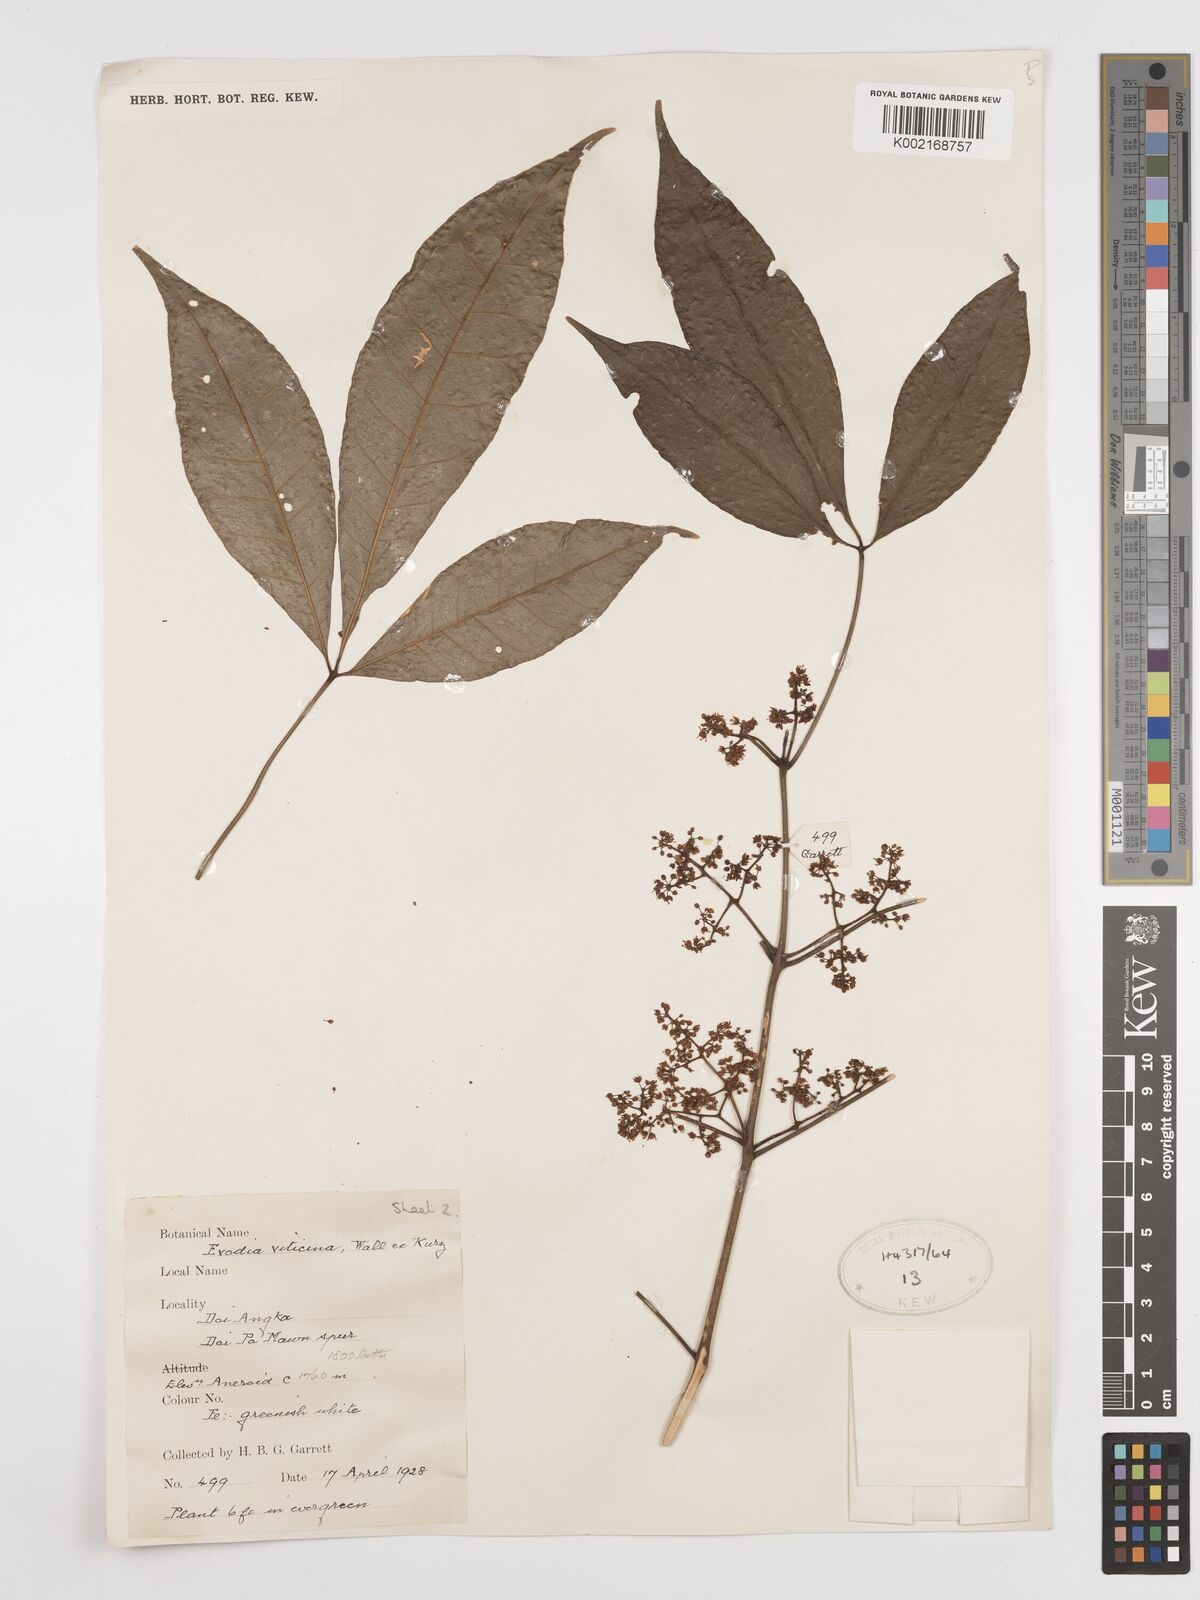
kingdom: Plantae
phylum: Tracheophyta
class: Magnoliopsida
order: Sapindales
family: Rutaceae
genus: Euodia
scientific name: Euodia
